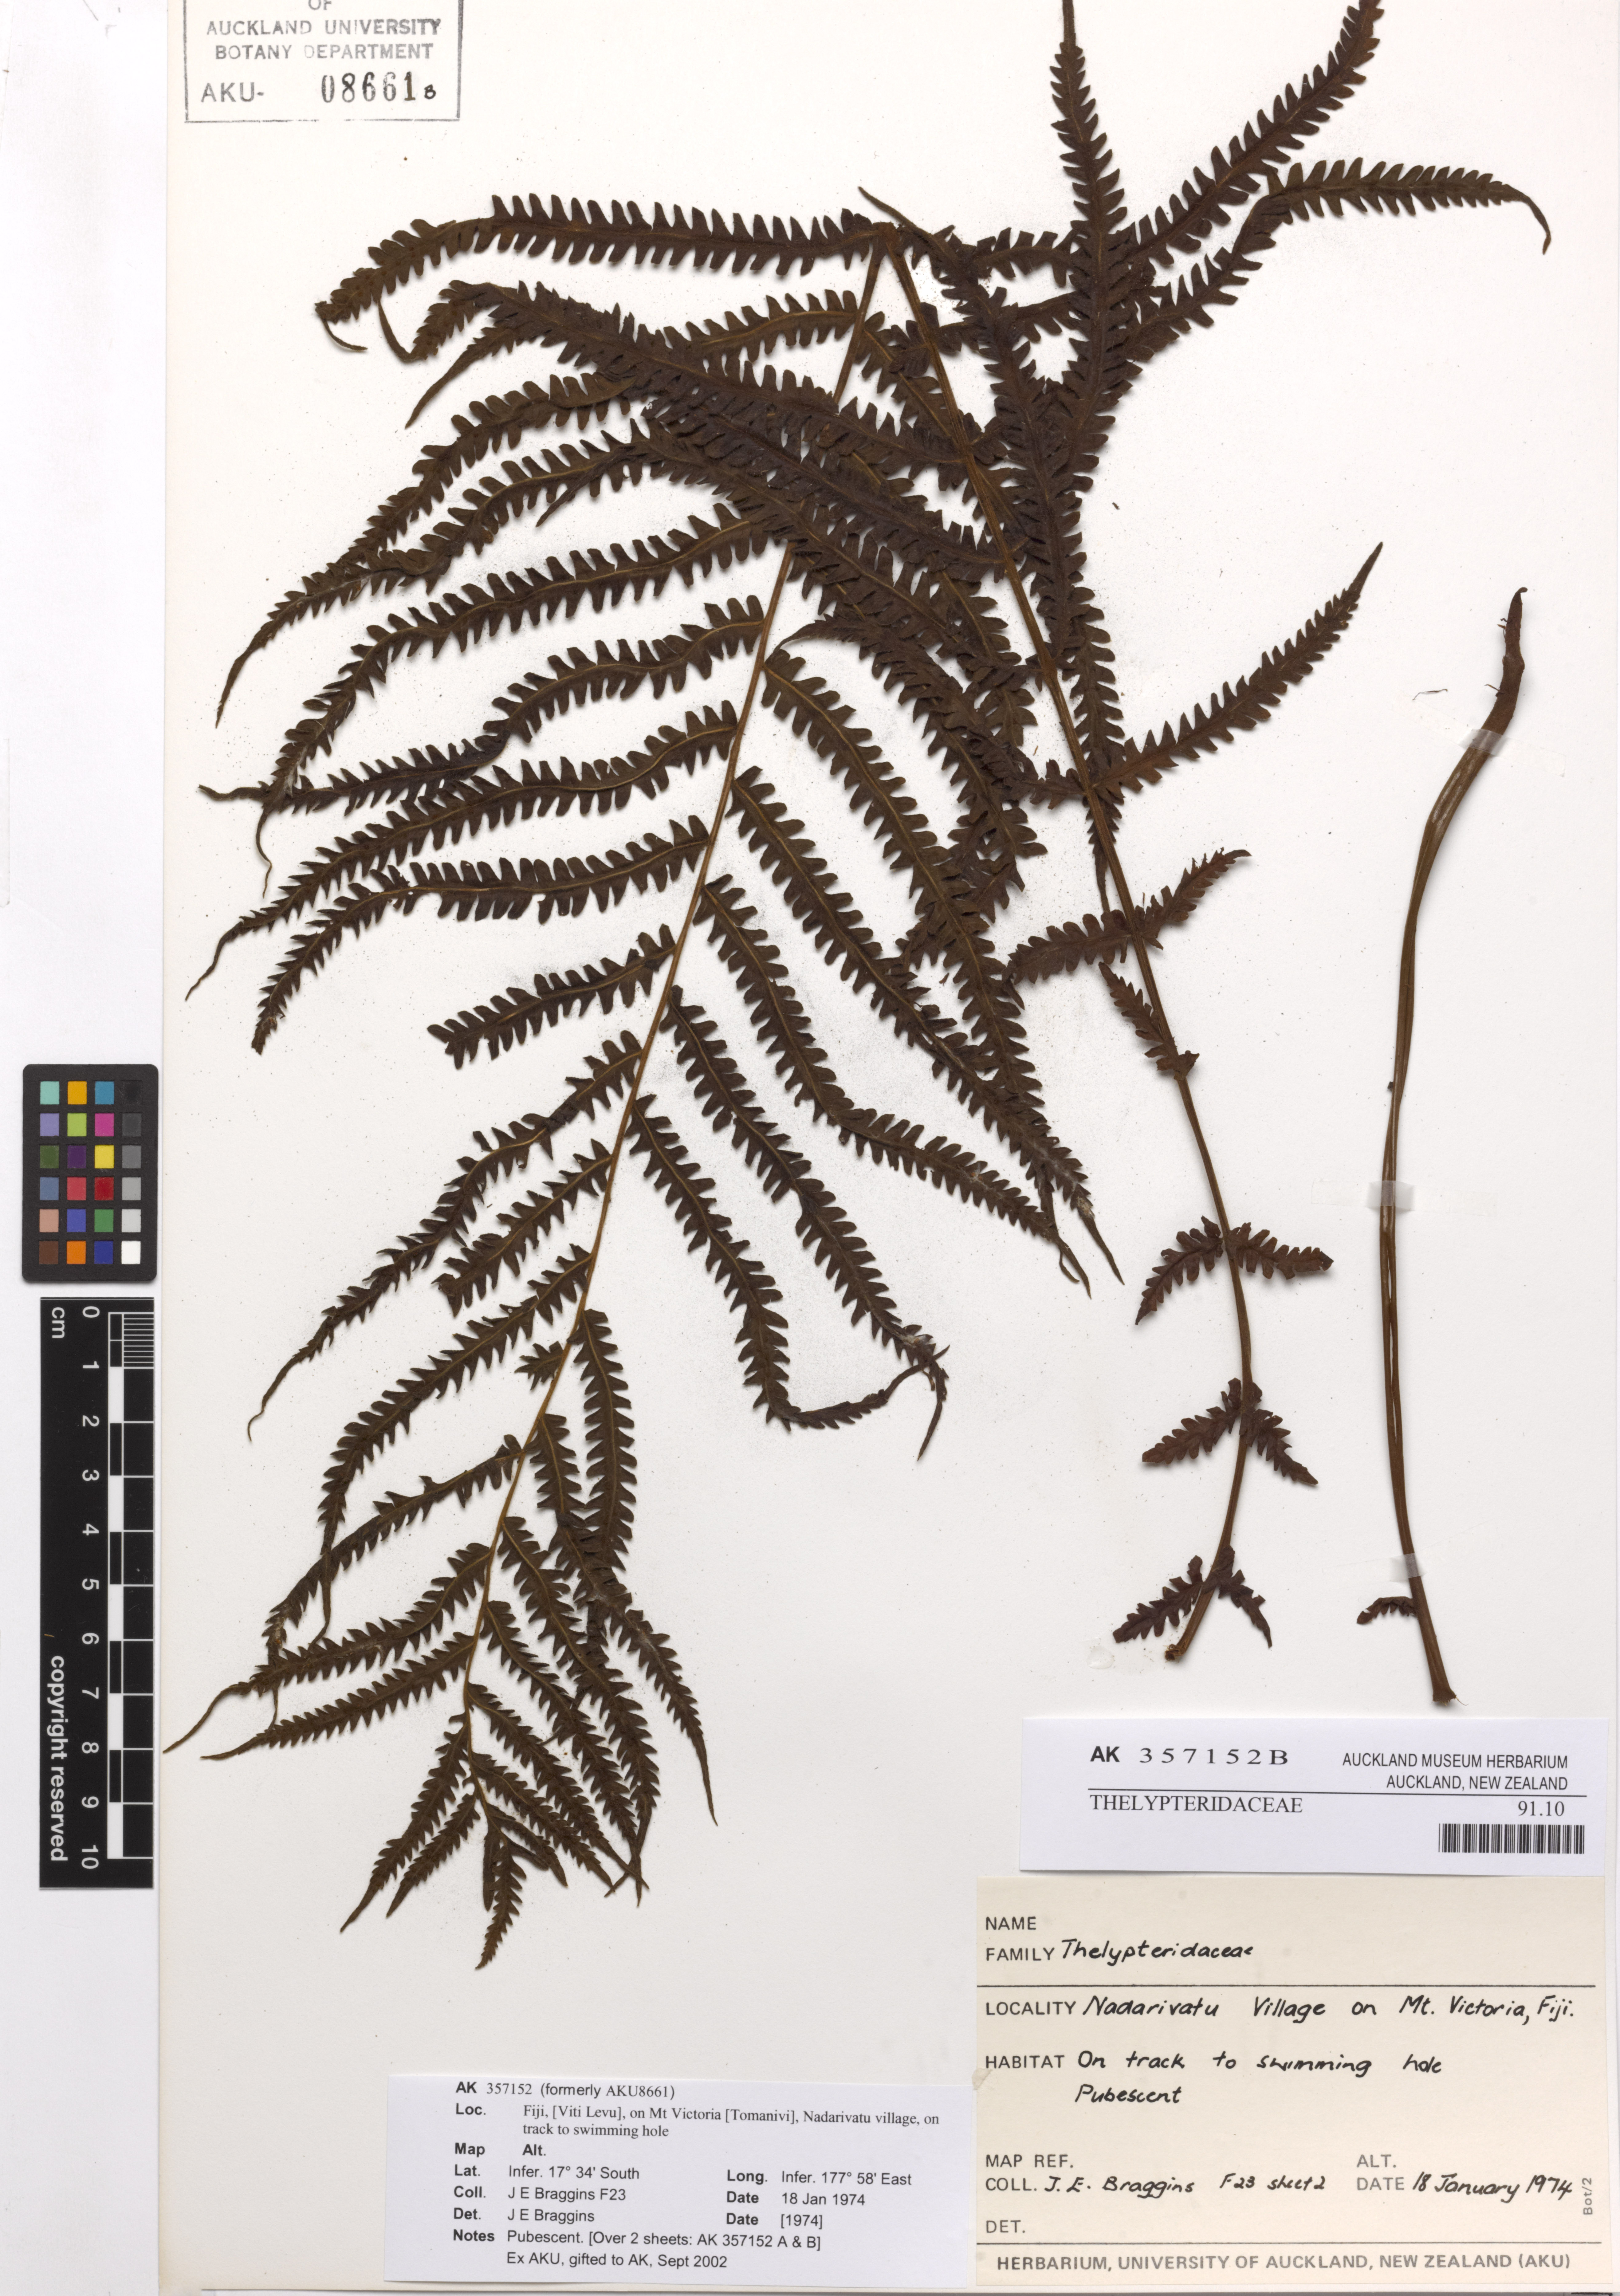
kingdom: Plantae
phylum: Tracheophyta
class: Polypodiopsida
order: Polypodiales
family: Thelypteridaceae
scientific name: Thelypteridaceae
